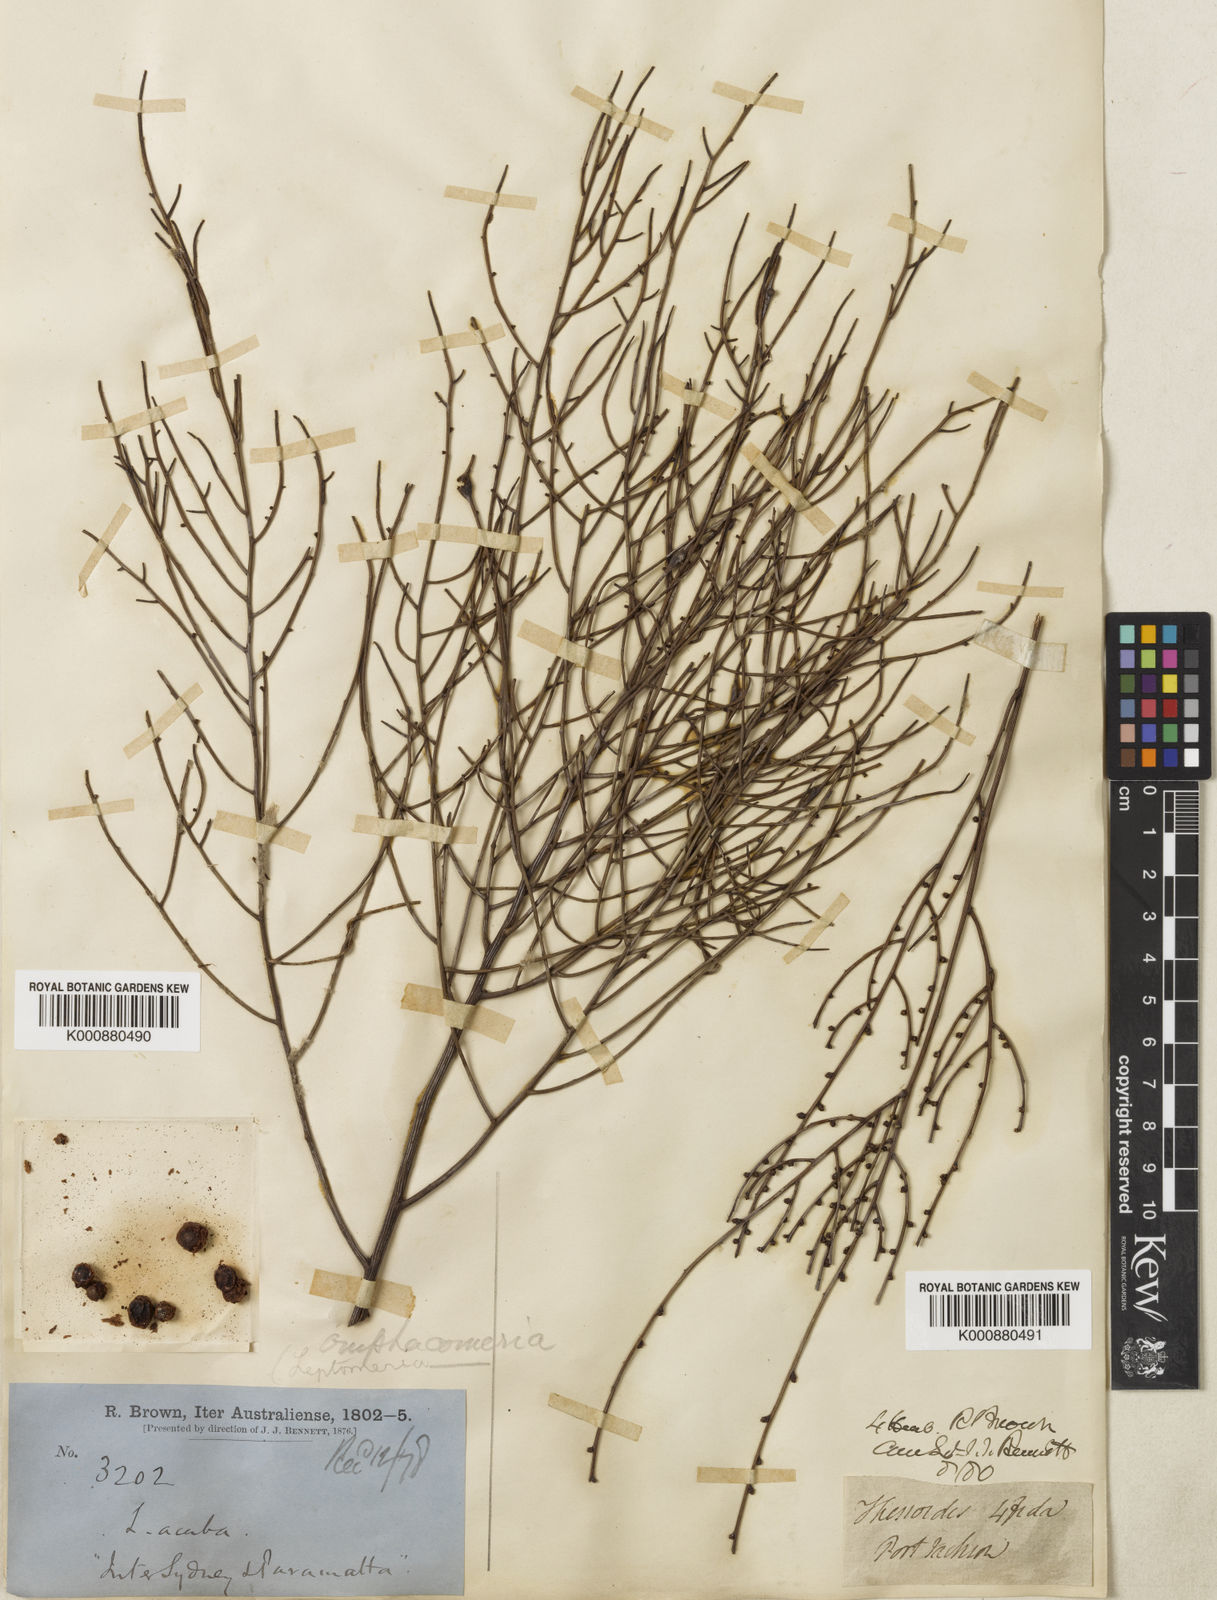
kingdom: Plantae
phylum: Tracheophyta
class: Magnoliopsida
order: Santalales
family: Santalaceae
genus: Omphacomeria
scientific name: Omphacomeria acerba
